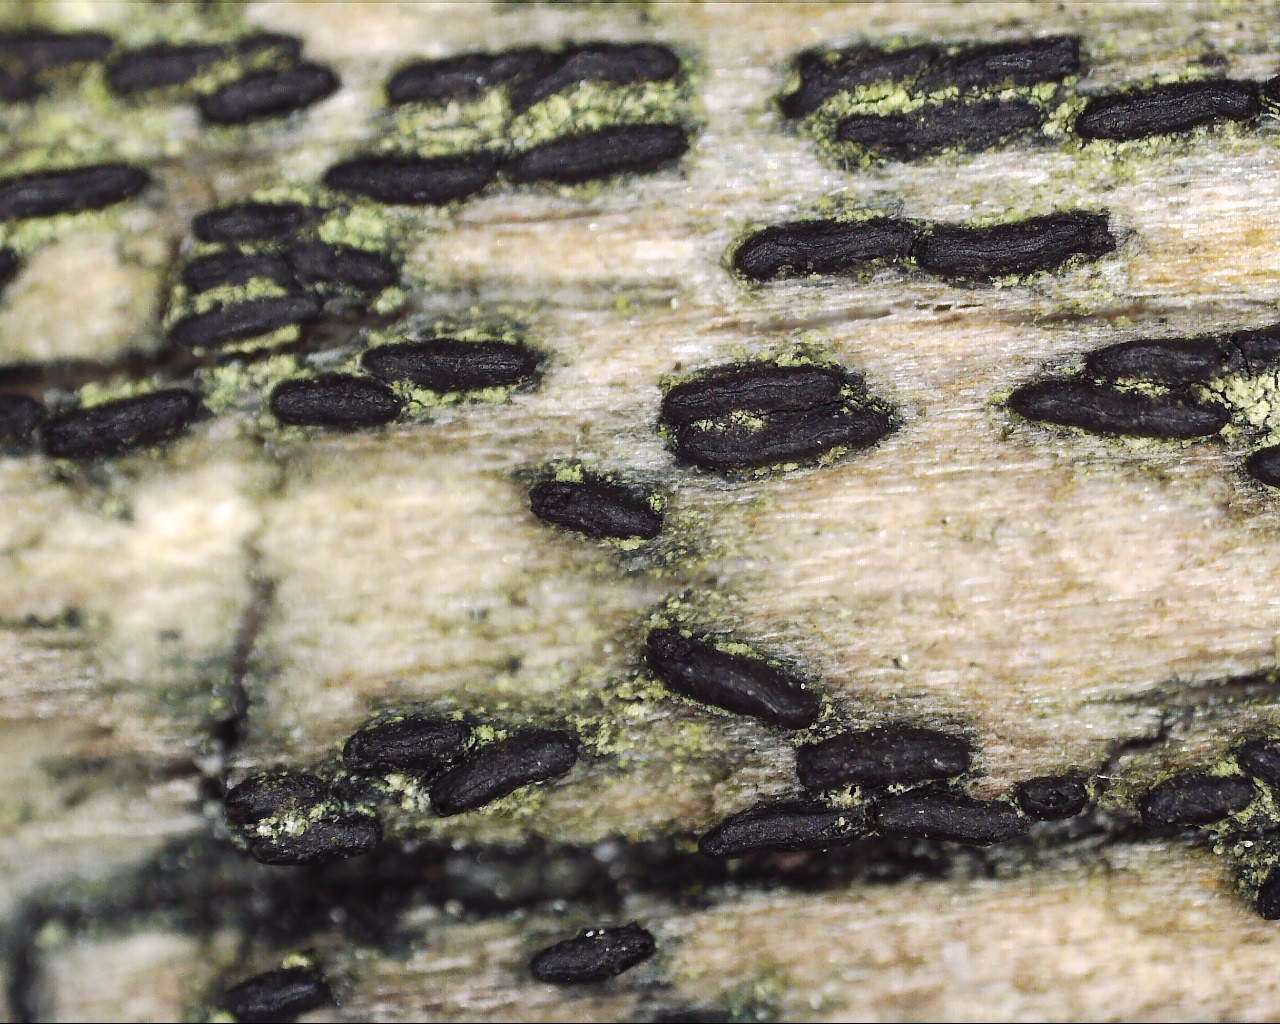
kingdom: Fungi
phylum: Ascomycota
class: Dothideomycetes
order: Hysteriales
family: Hysteriaceae
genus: Hysterium
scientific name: Hysterium acuminatum
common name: almindelig kulmund
